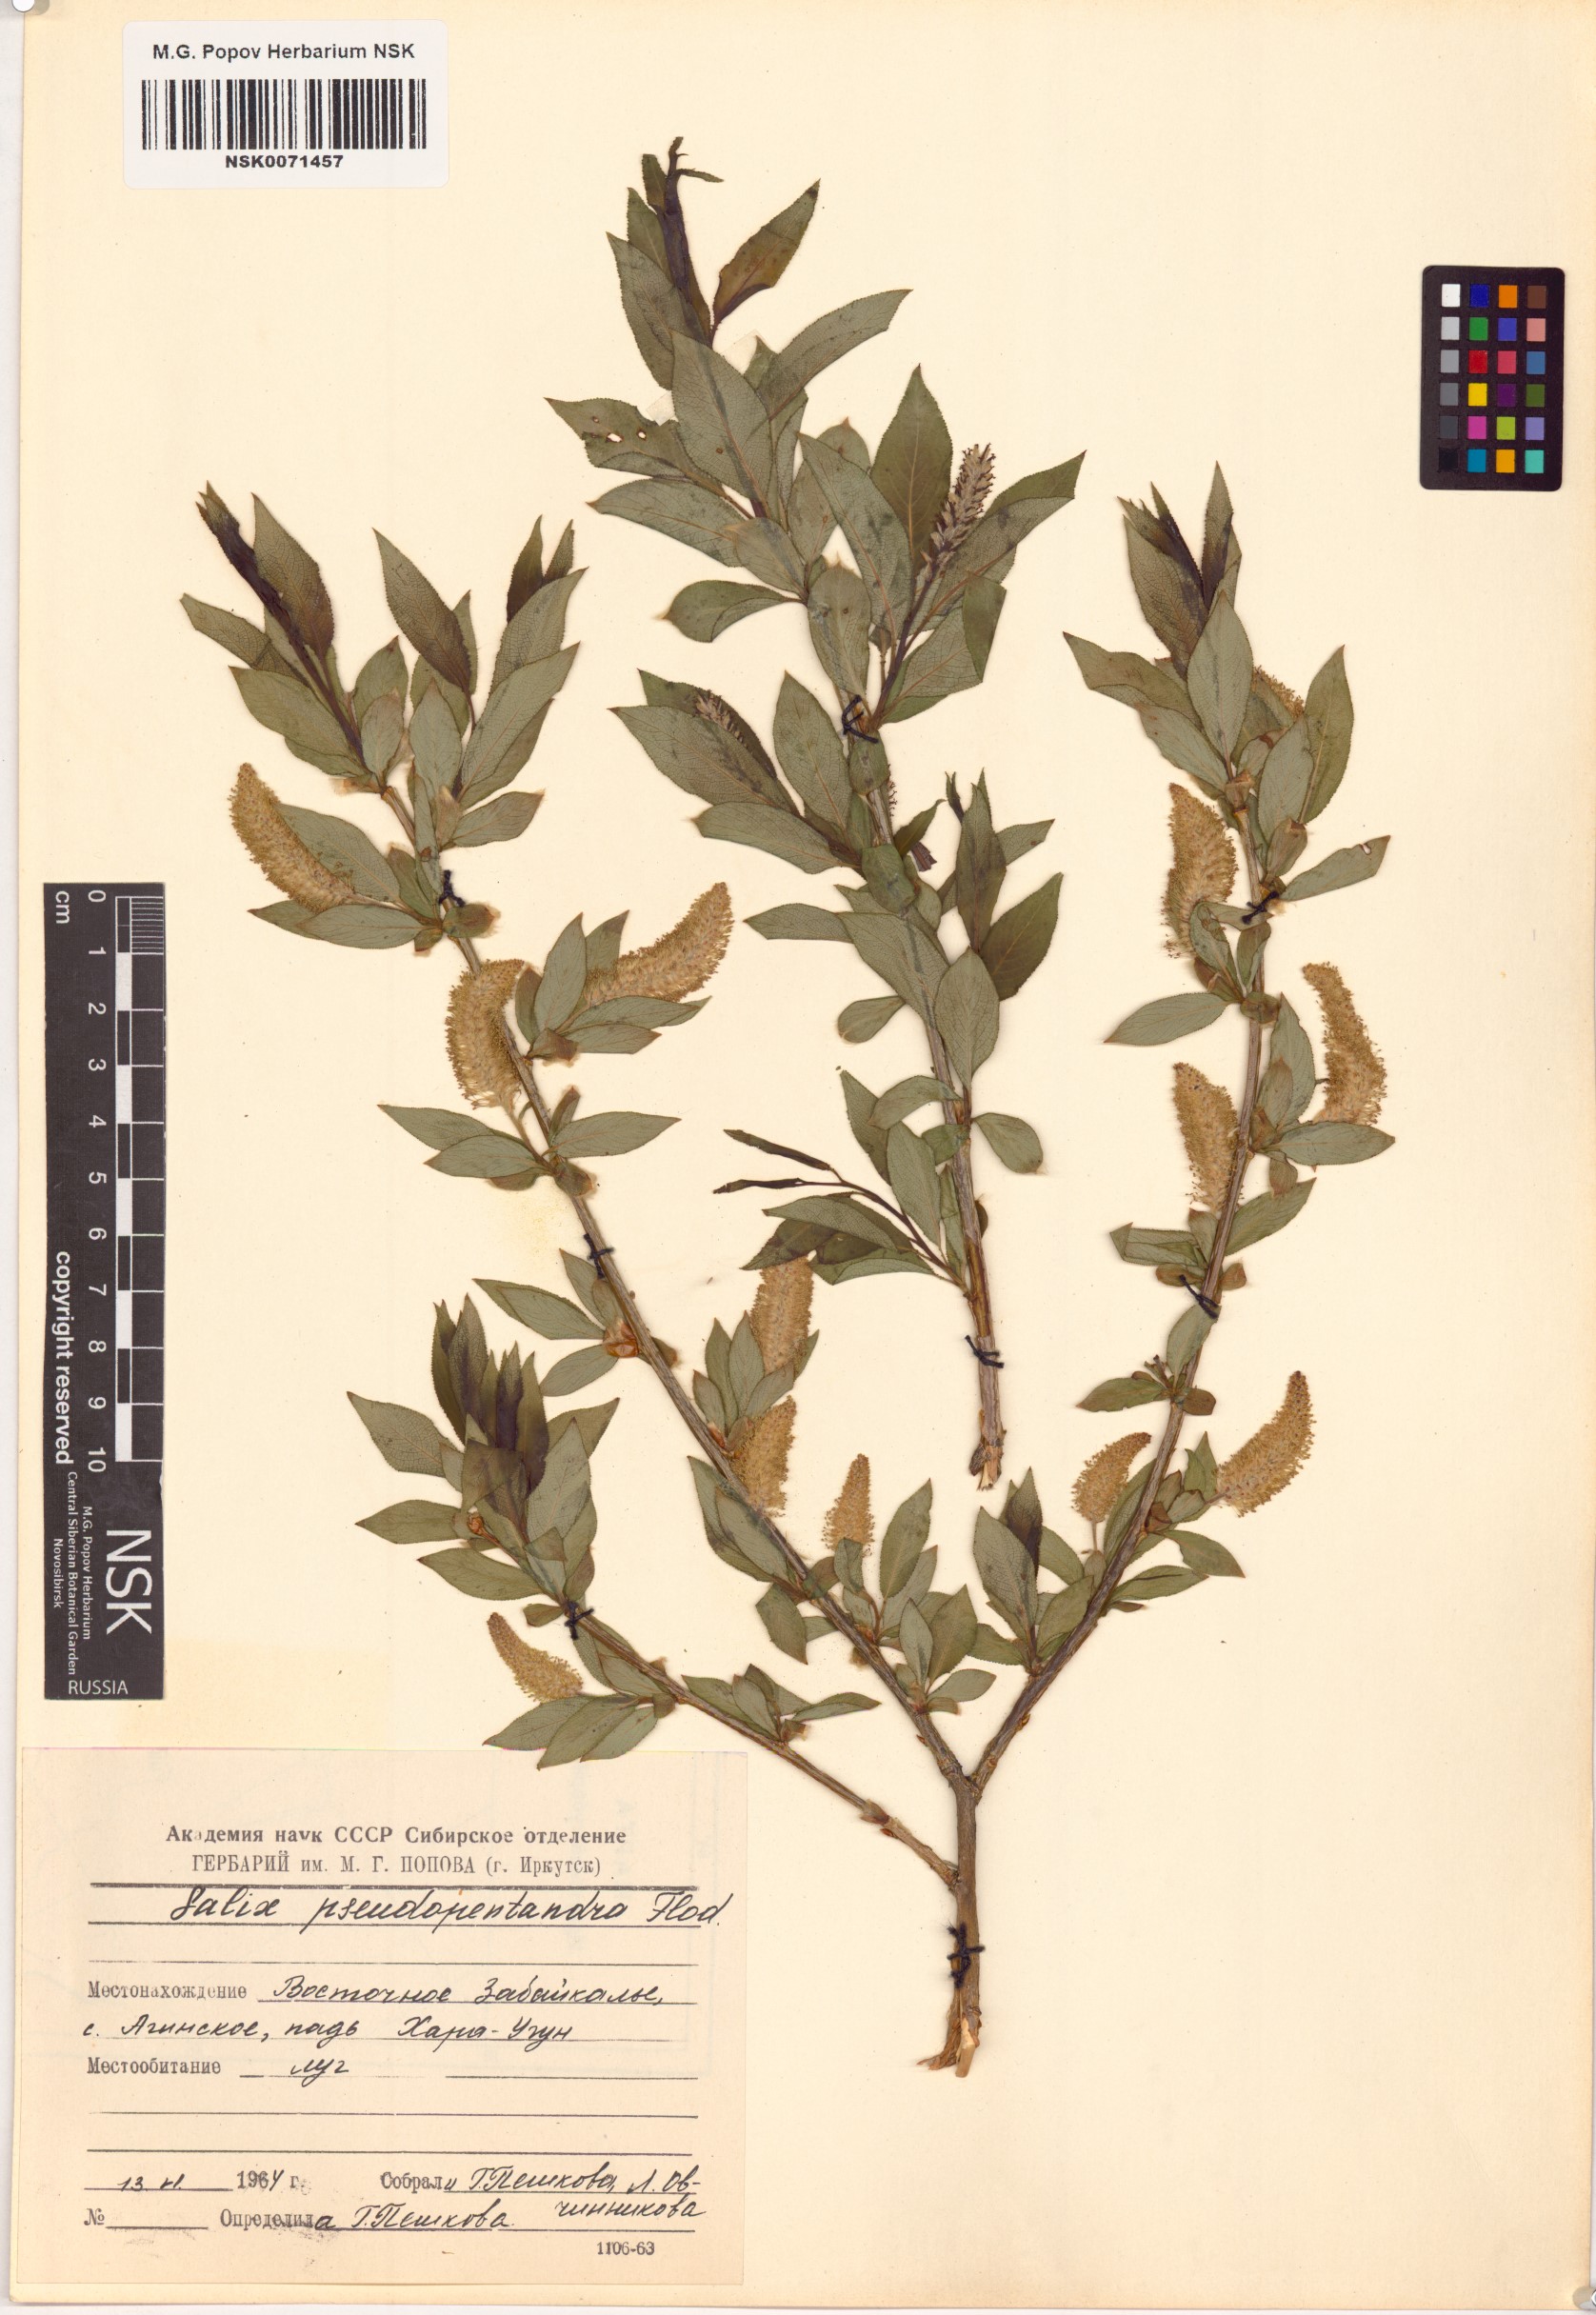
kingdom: Plantae
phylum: Tracheophyta
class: Magnoliopsida
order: Malpighiales
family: Salicaceae
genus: Salix
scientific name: Salix pseudopentandra
